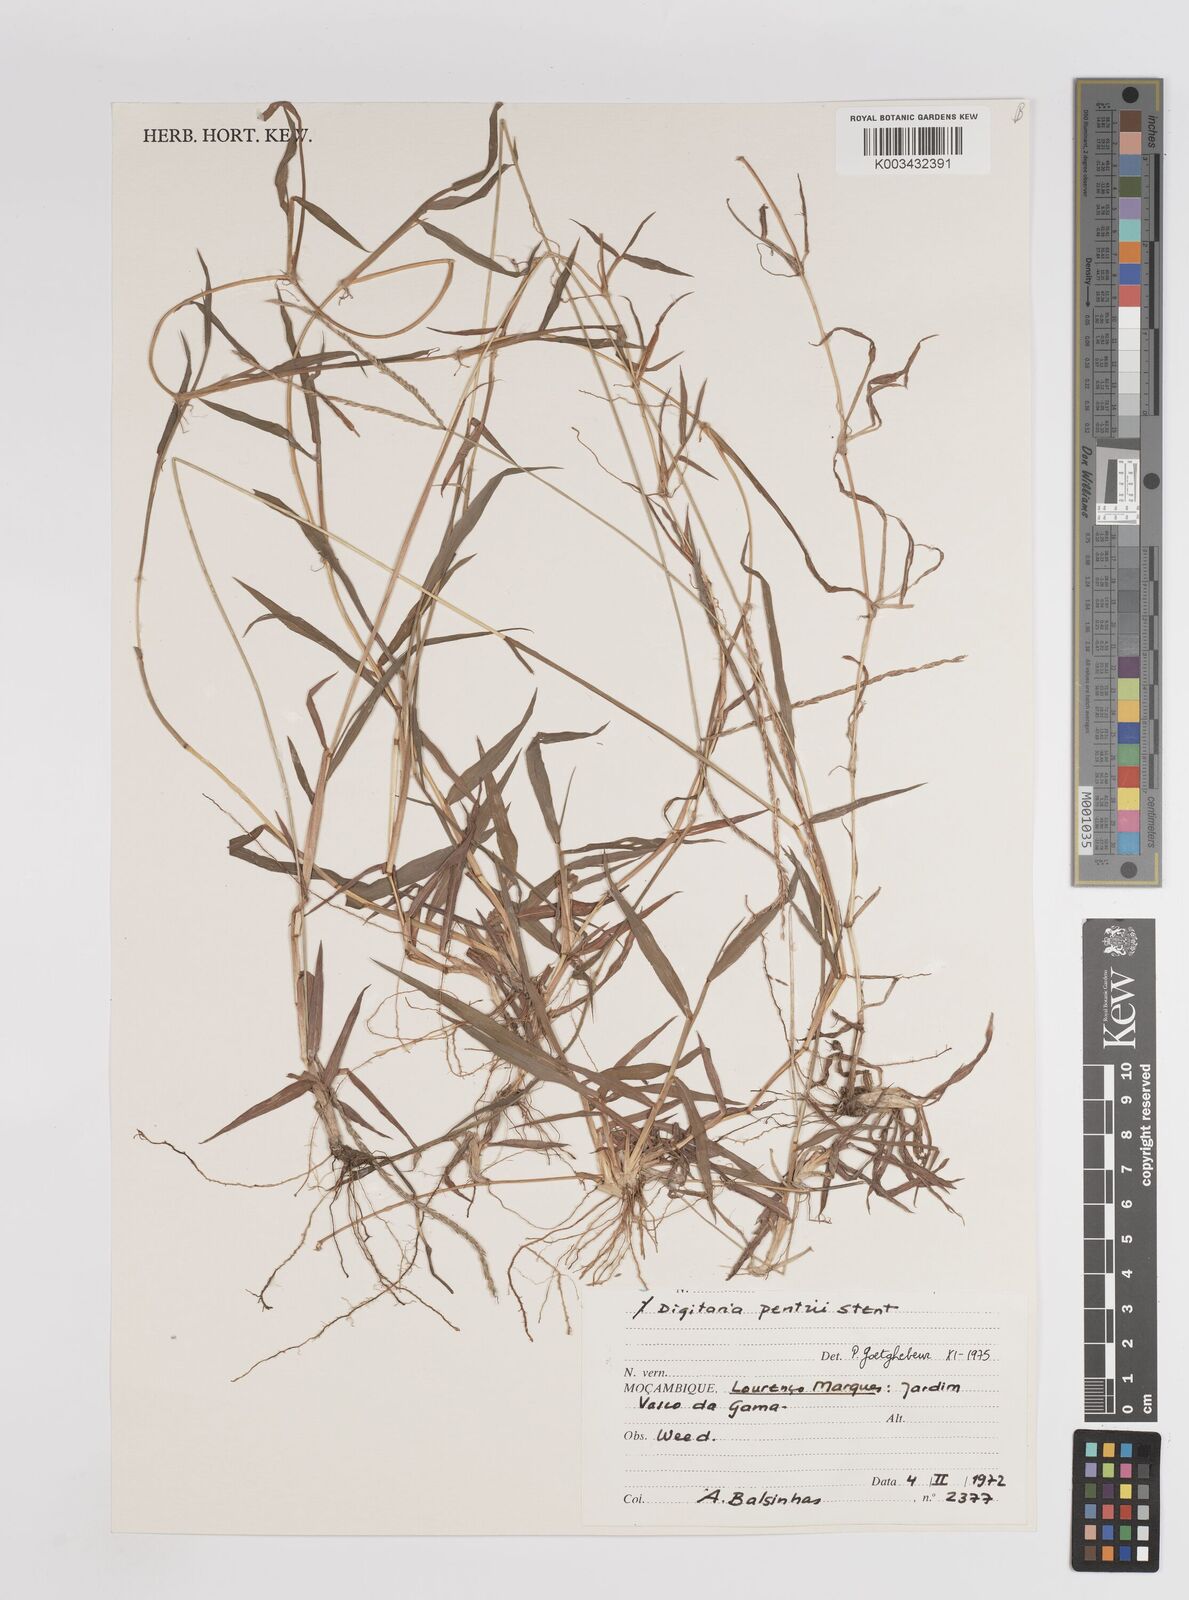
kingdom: Plantae
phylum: Tracheophyta
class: Liliopsida
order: Poales
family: Poaceae
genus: Digitaria
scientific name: Digitaria eriantha
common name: Digitgrass
